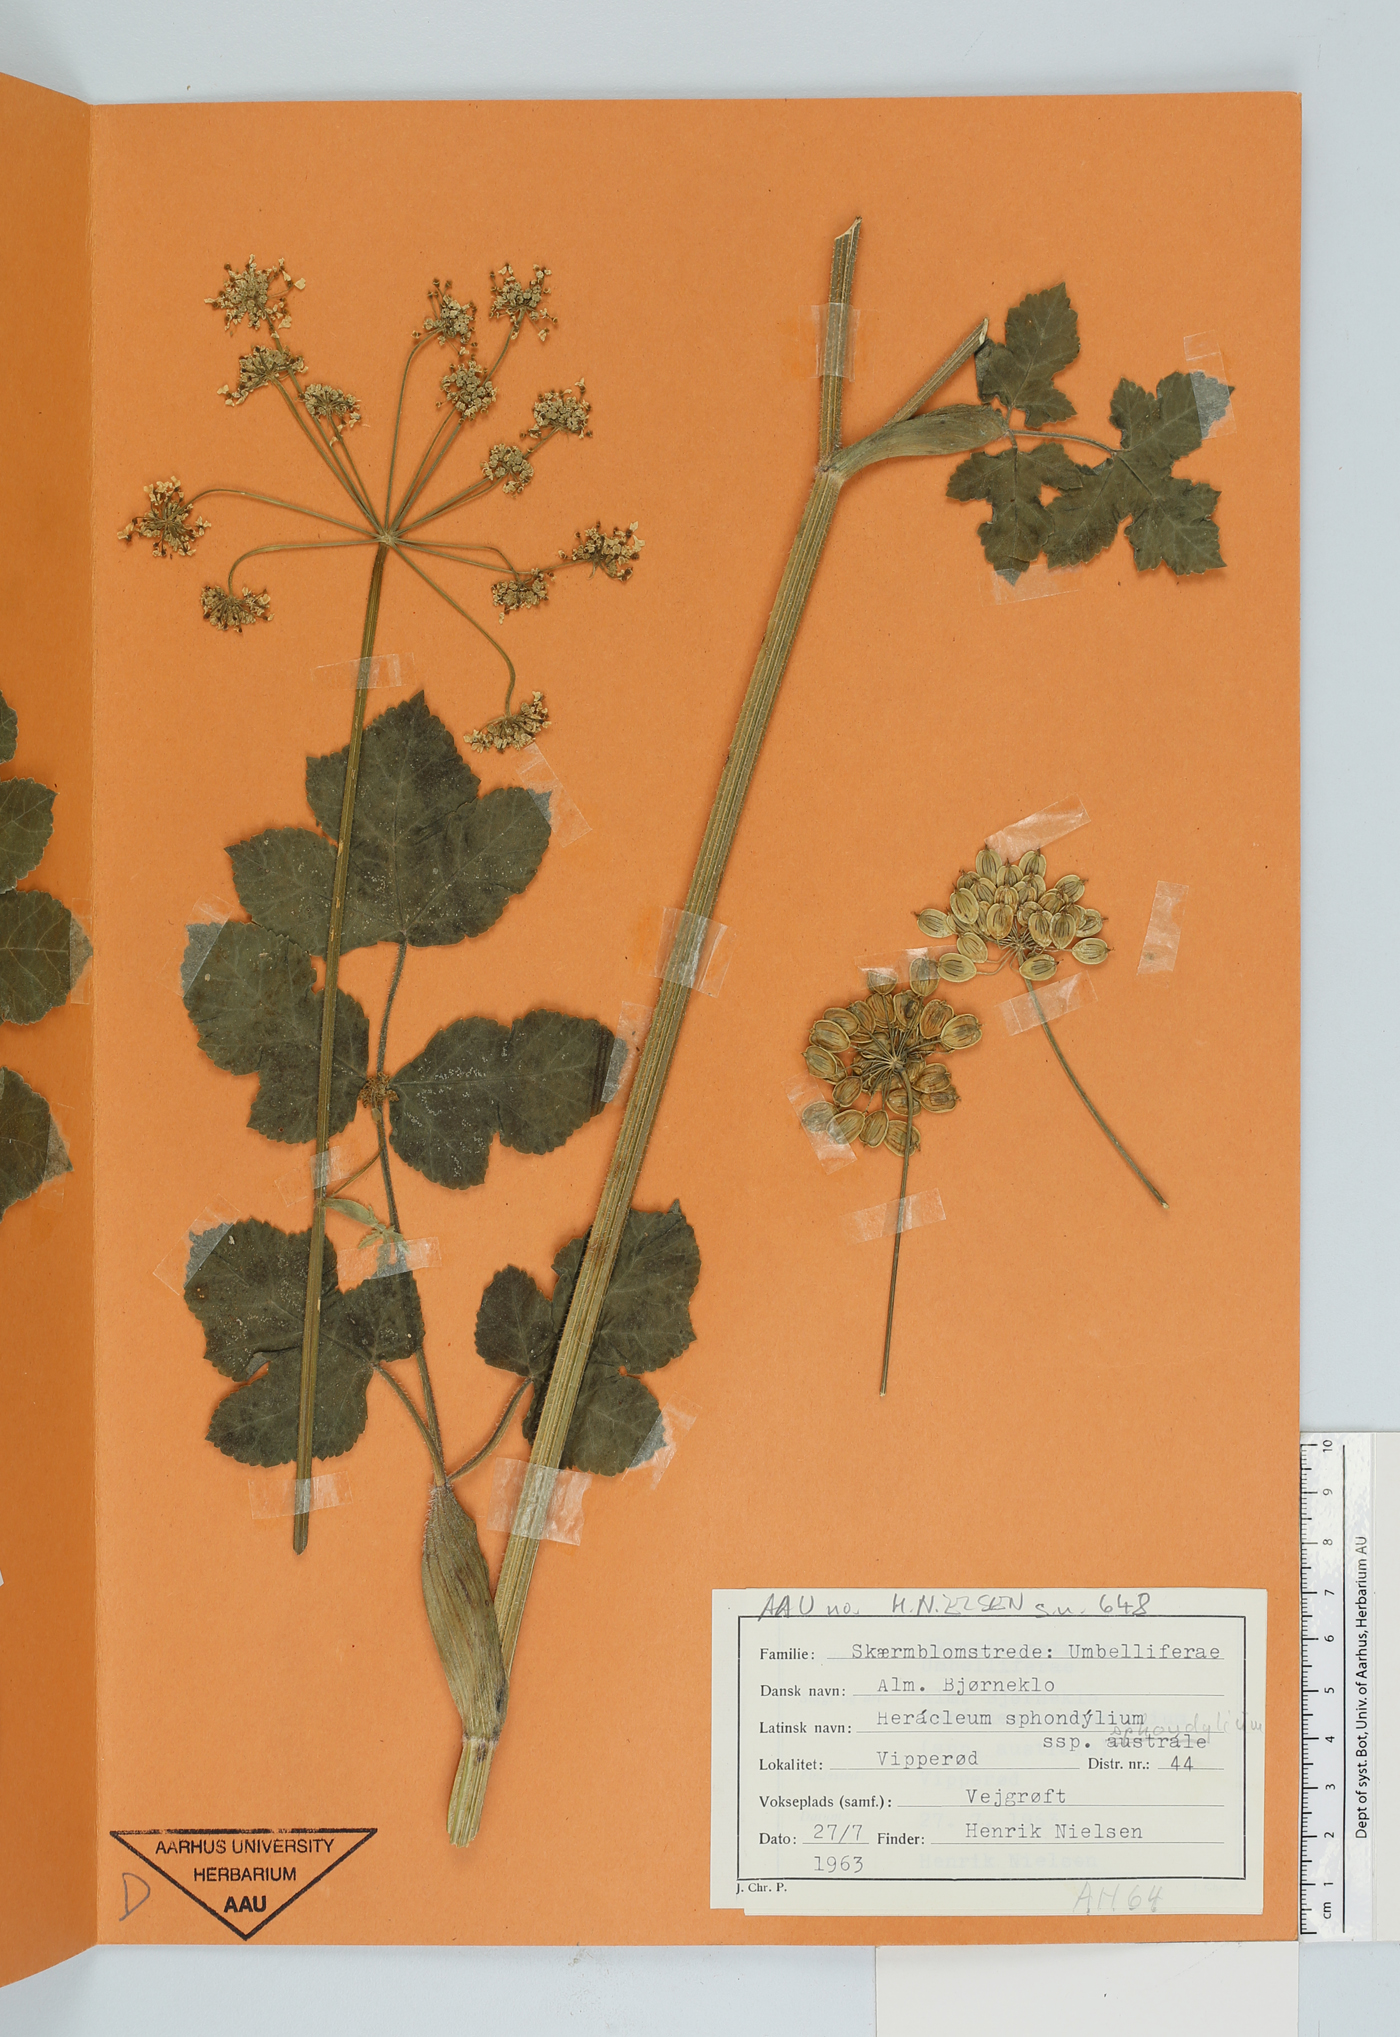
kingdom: Plantae
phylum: Tracheophyta
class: Magnoliopsida
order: Apiales
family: Apiaceae
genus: Heracleum
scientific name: Heracleum sphondylium
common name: Hogweed
